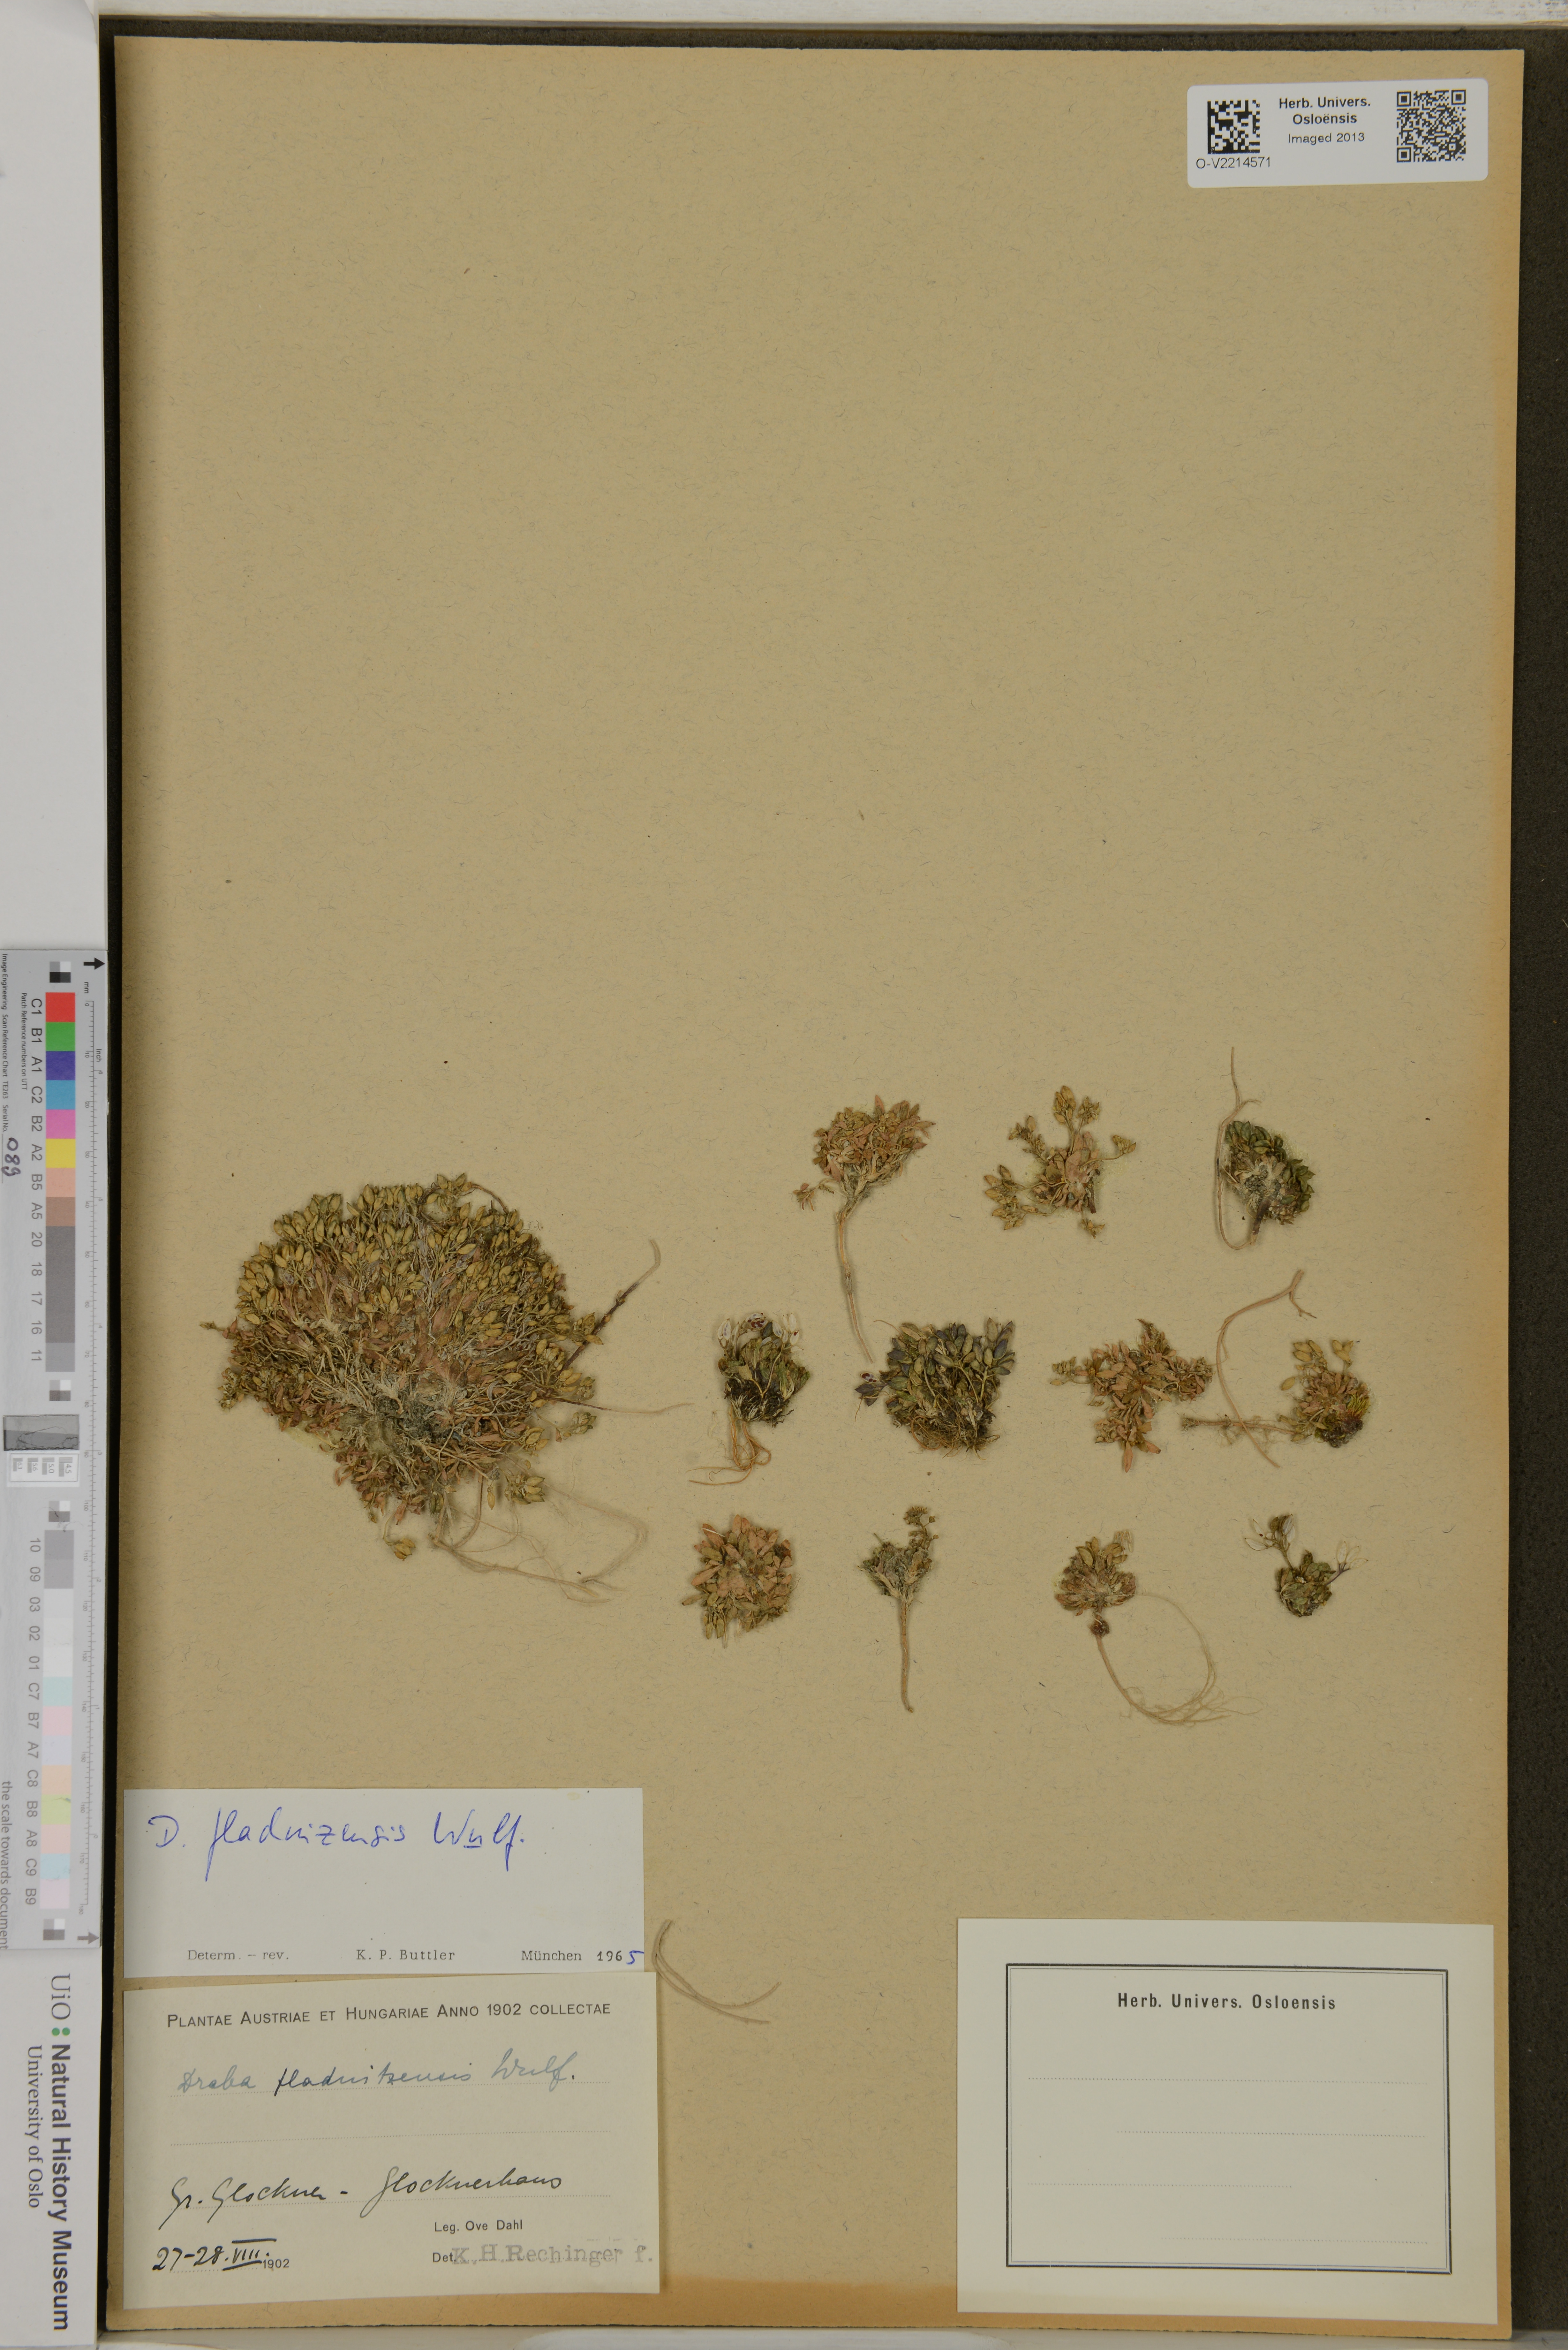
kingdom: Plantae
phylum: Tracheophyta
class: Magnoliopsida
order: Brassicales
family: Brassicaceae
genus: Draba
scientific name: Draba fladnizensis
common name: Austrian draba
